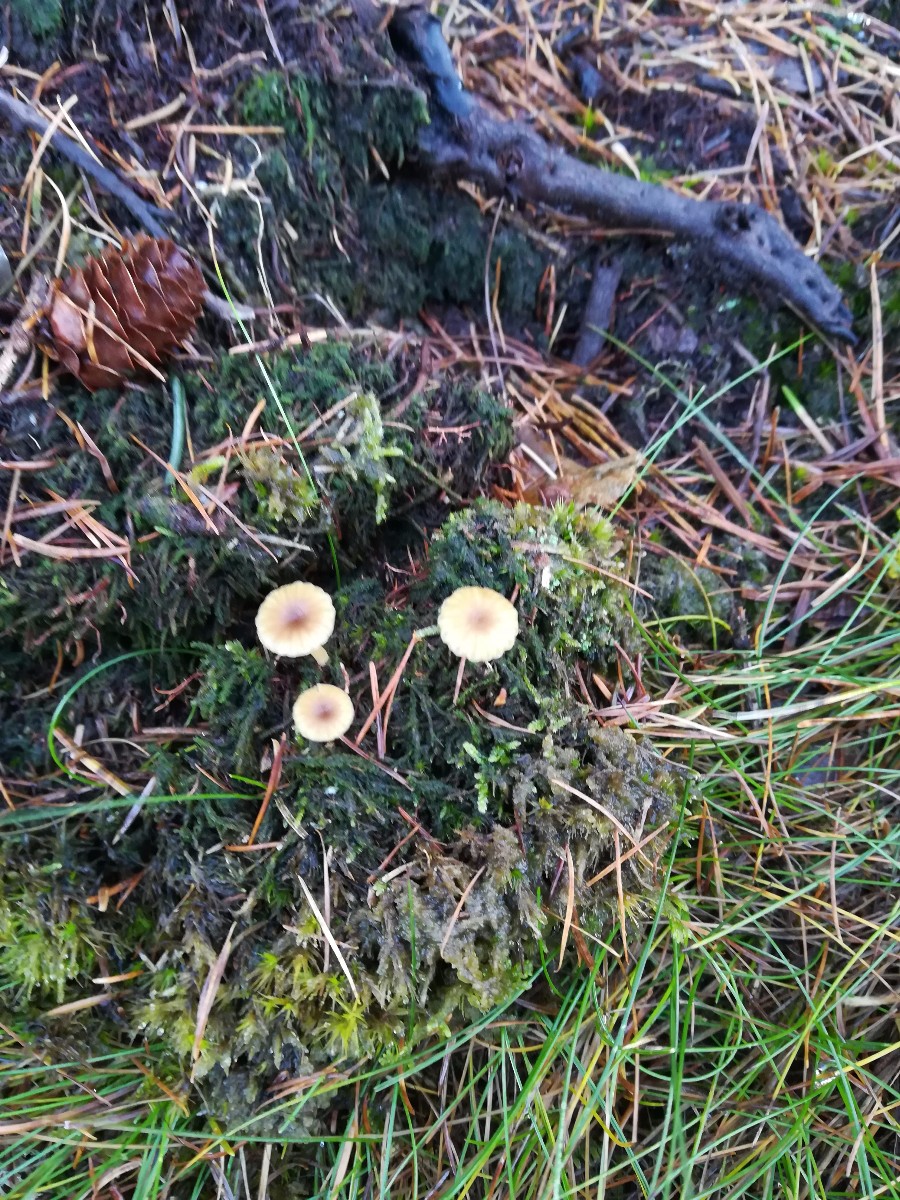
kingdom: Fungi
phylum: Basidiomycota
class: Agaricomycetes
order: Agaricales
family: Hygrophoraceae
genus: Lichenomphalia
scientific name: Lichenomphalia umbellifera
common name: tørve-lavhat
